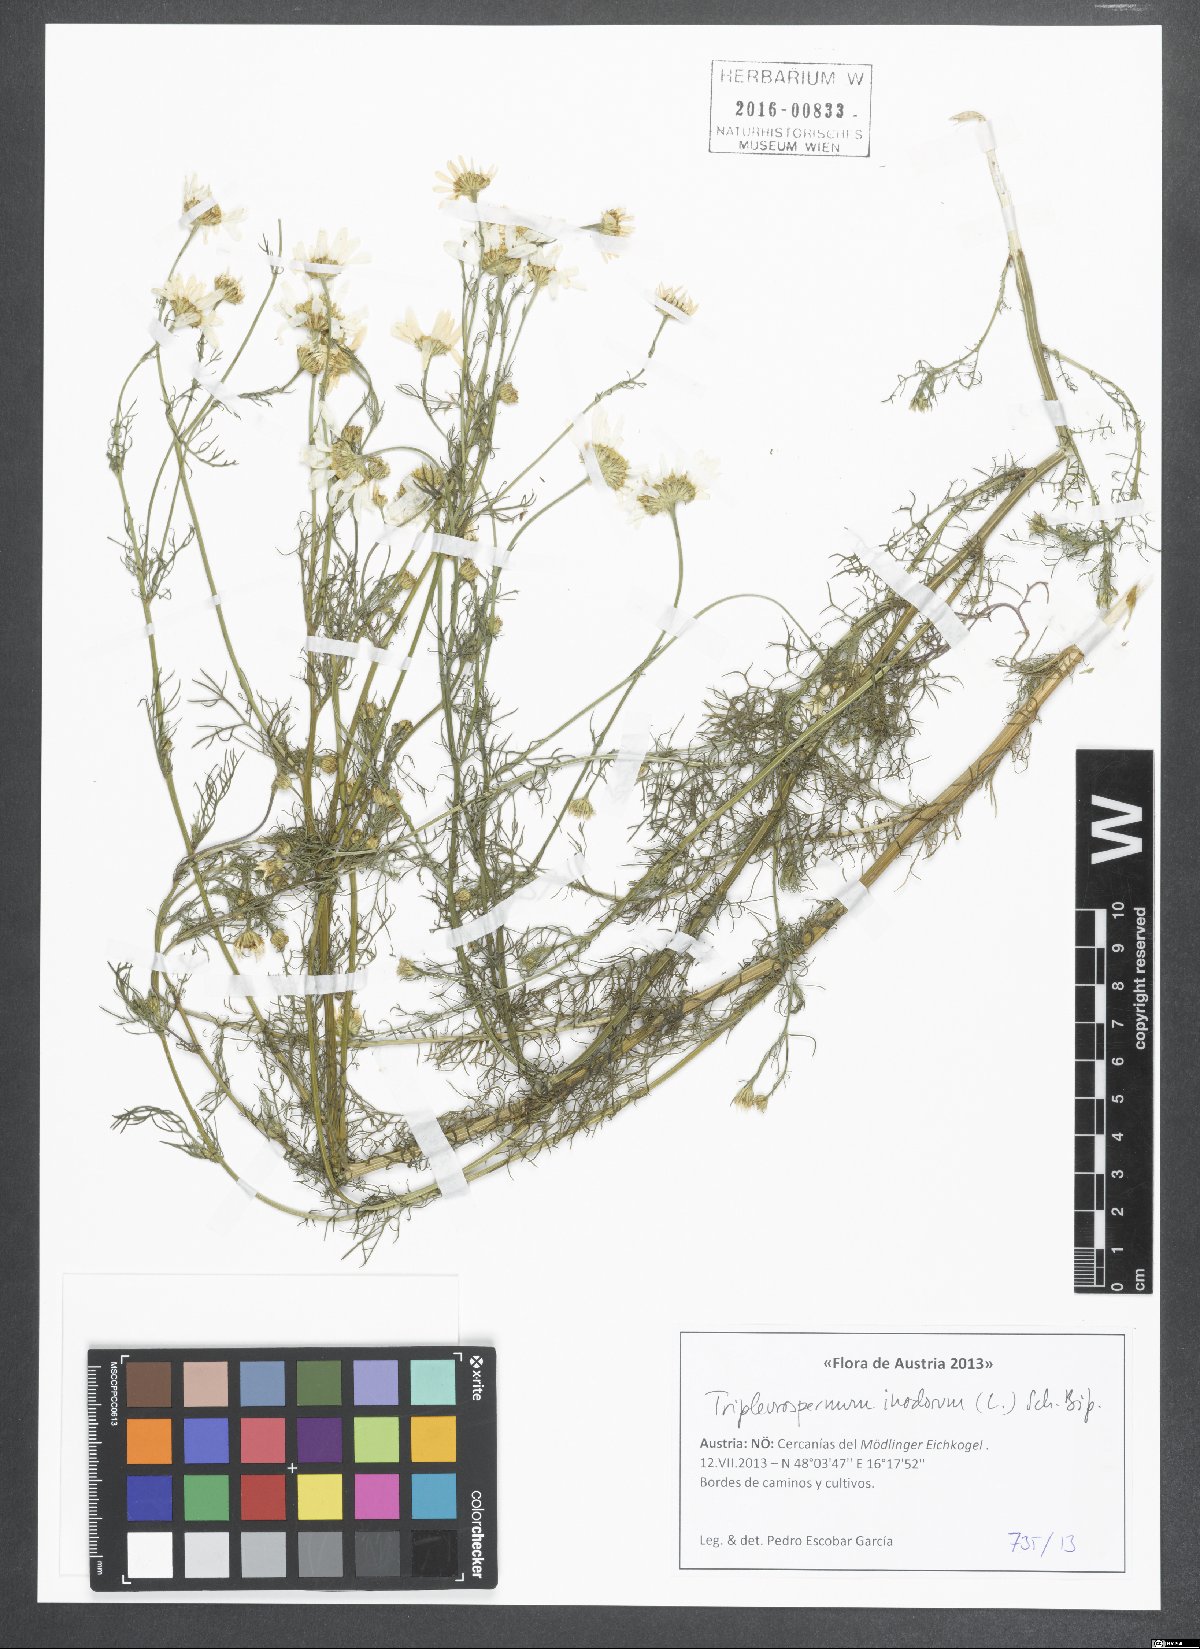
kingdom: Plantae
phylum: Tracheophyta
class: Magnoliopsida
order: Asterales
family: Asteraceae
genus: Tripleurospermum
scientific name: Tripleurospermum inodorum
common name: Scentless mayweed
